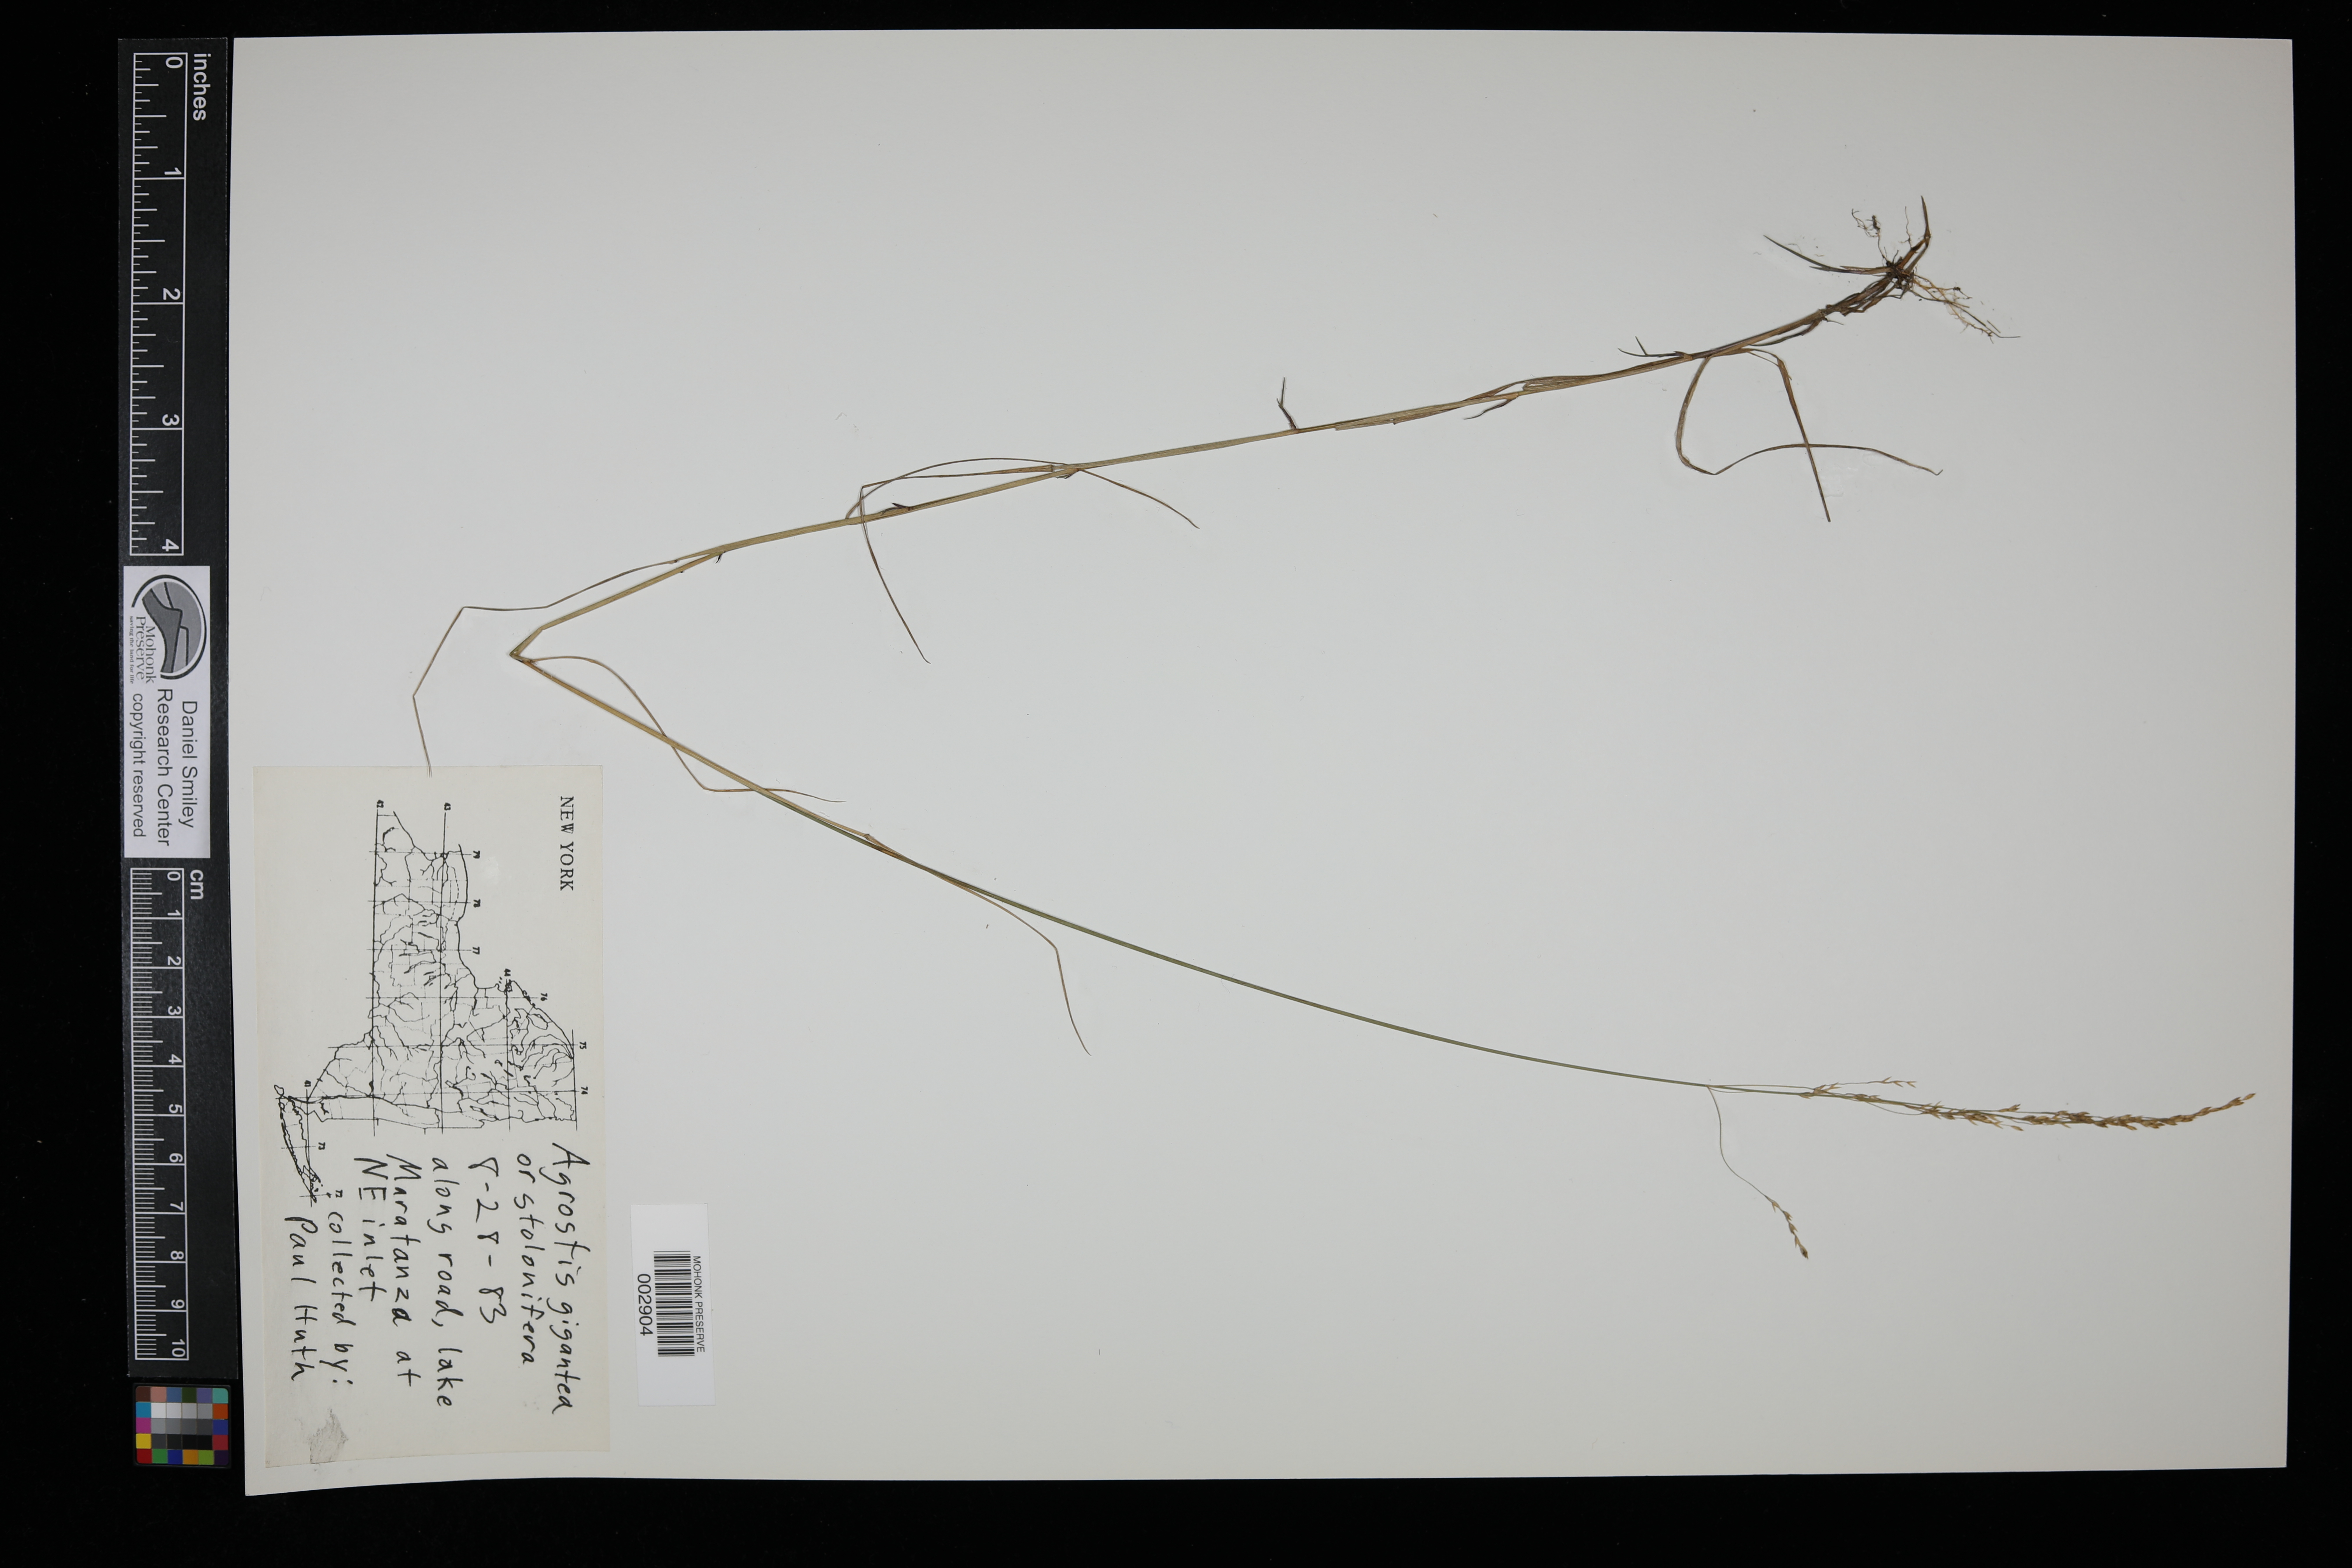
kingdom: Plantae
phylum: Tracheophyta
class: Liliopsida
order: Poales
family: Poaceae
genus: Agrostis
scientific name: Agrostis gigantea
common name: Black bent
